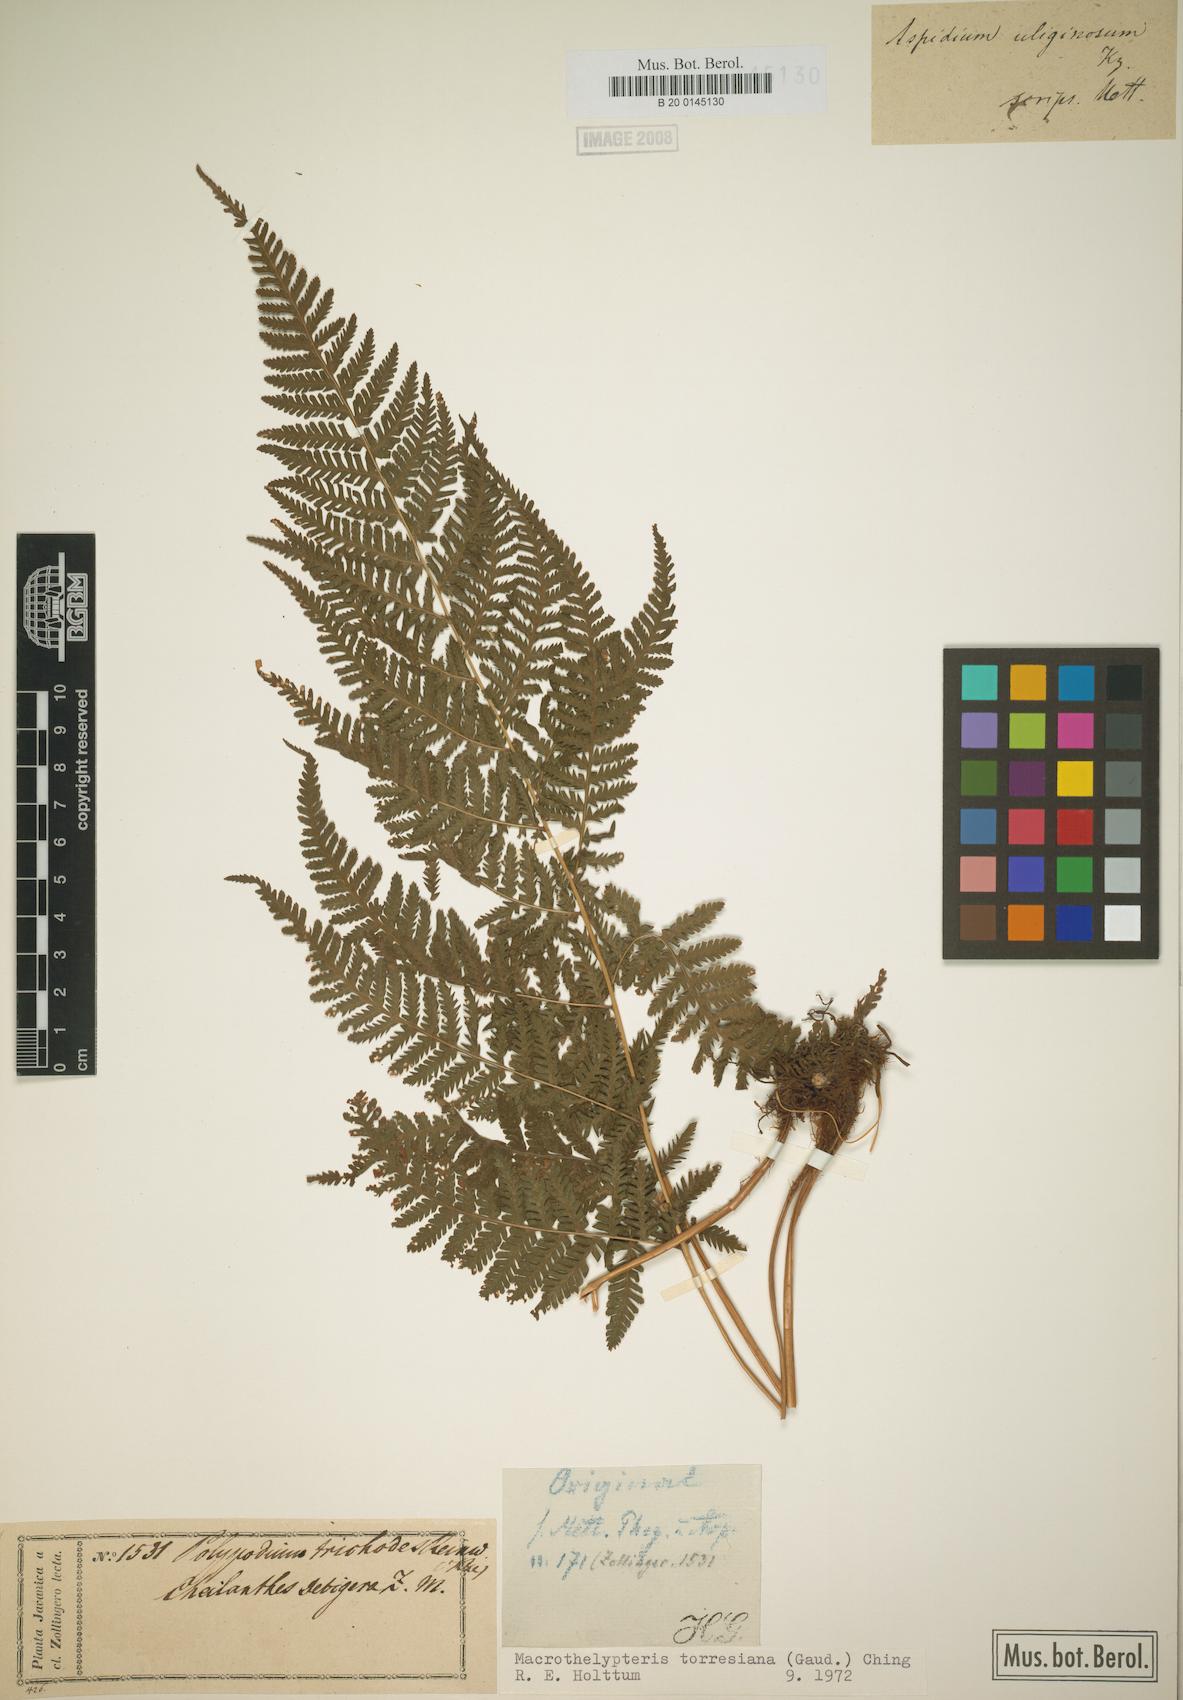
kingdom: Plantae
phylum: Tracheophyta
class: Polypodiopsida
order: Polypodiales
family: Thelypteridaceae
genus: Macrothelypteris
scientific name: Macrothelypteris torresiana
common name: Swordfern
